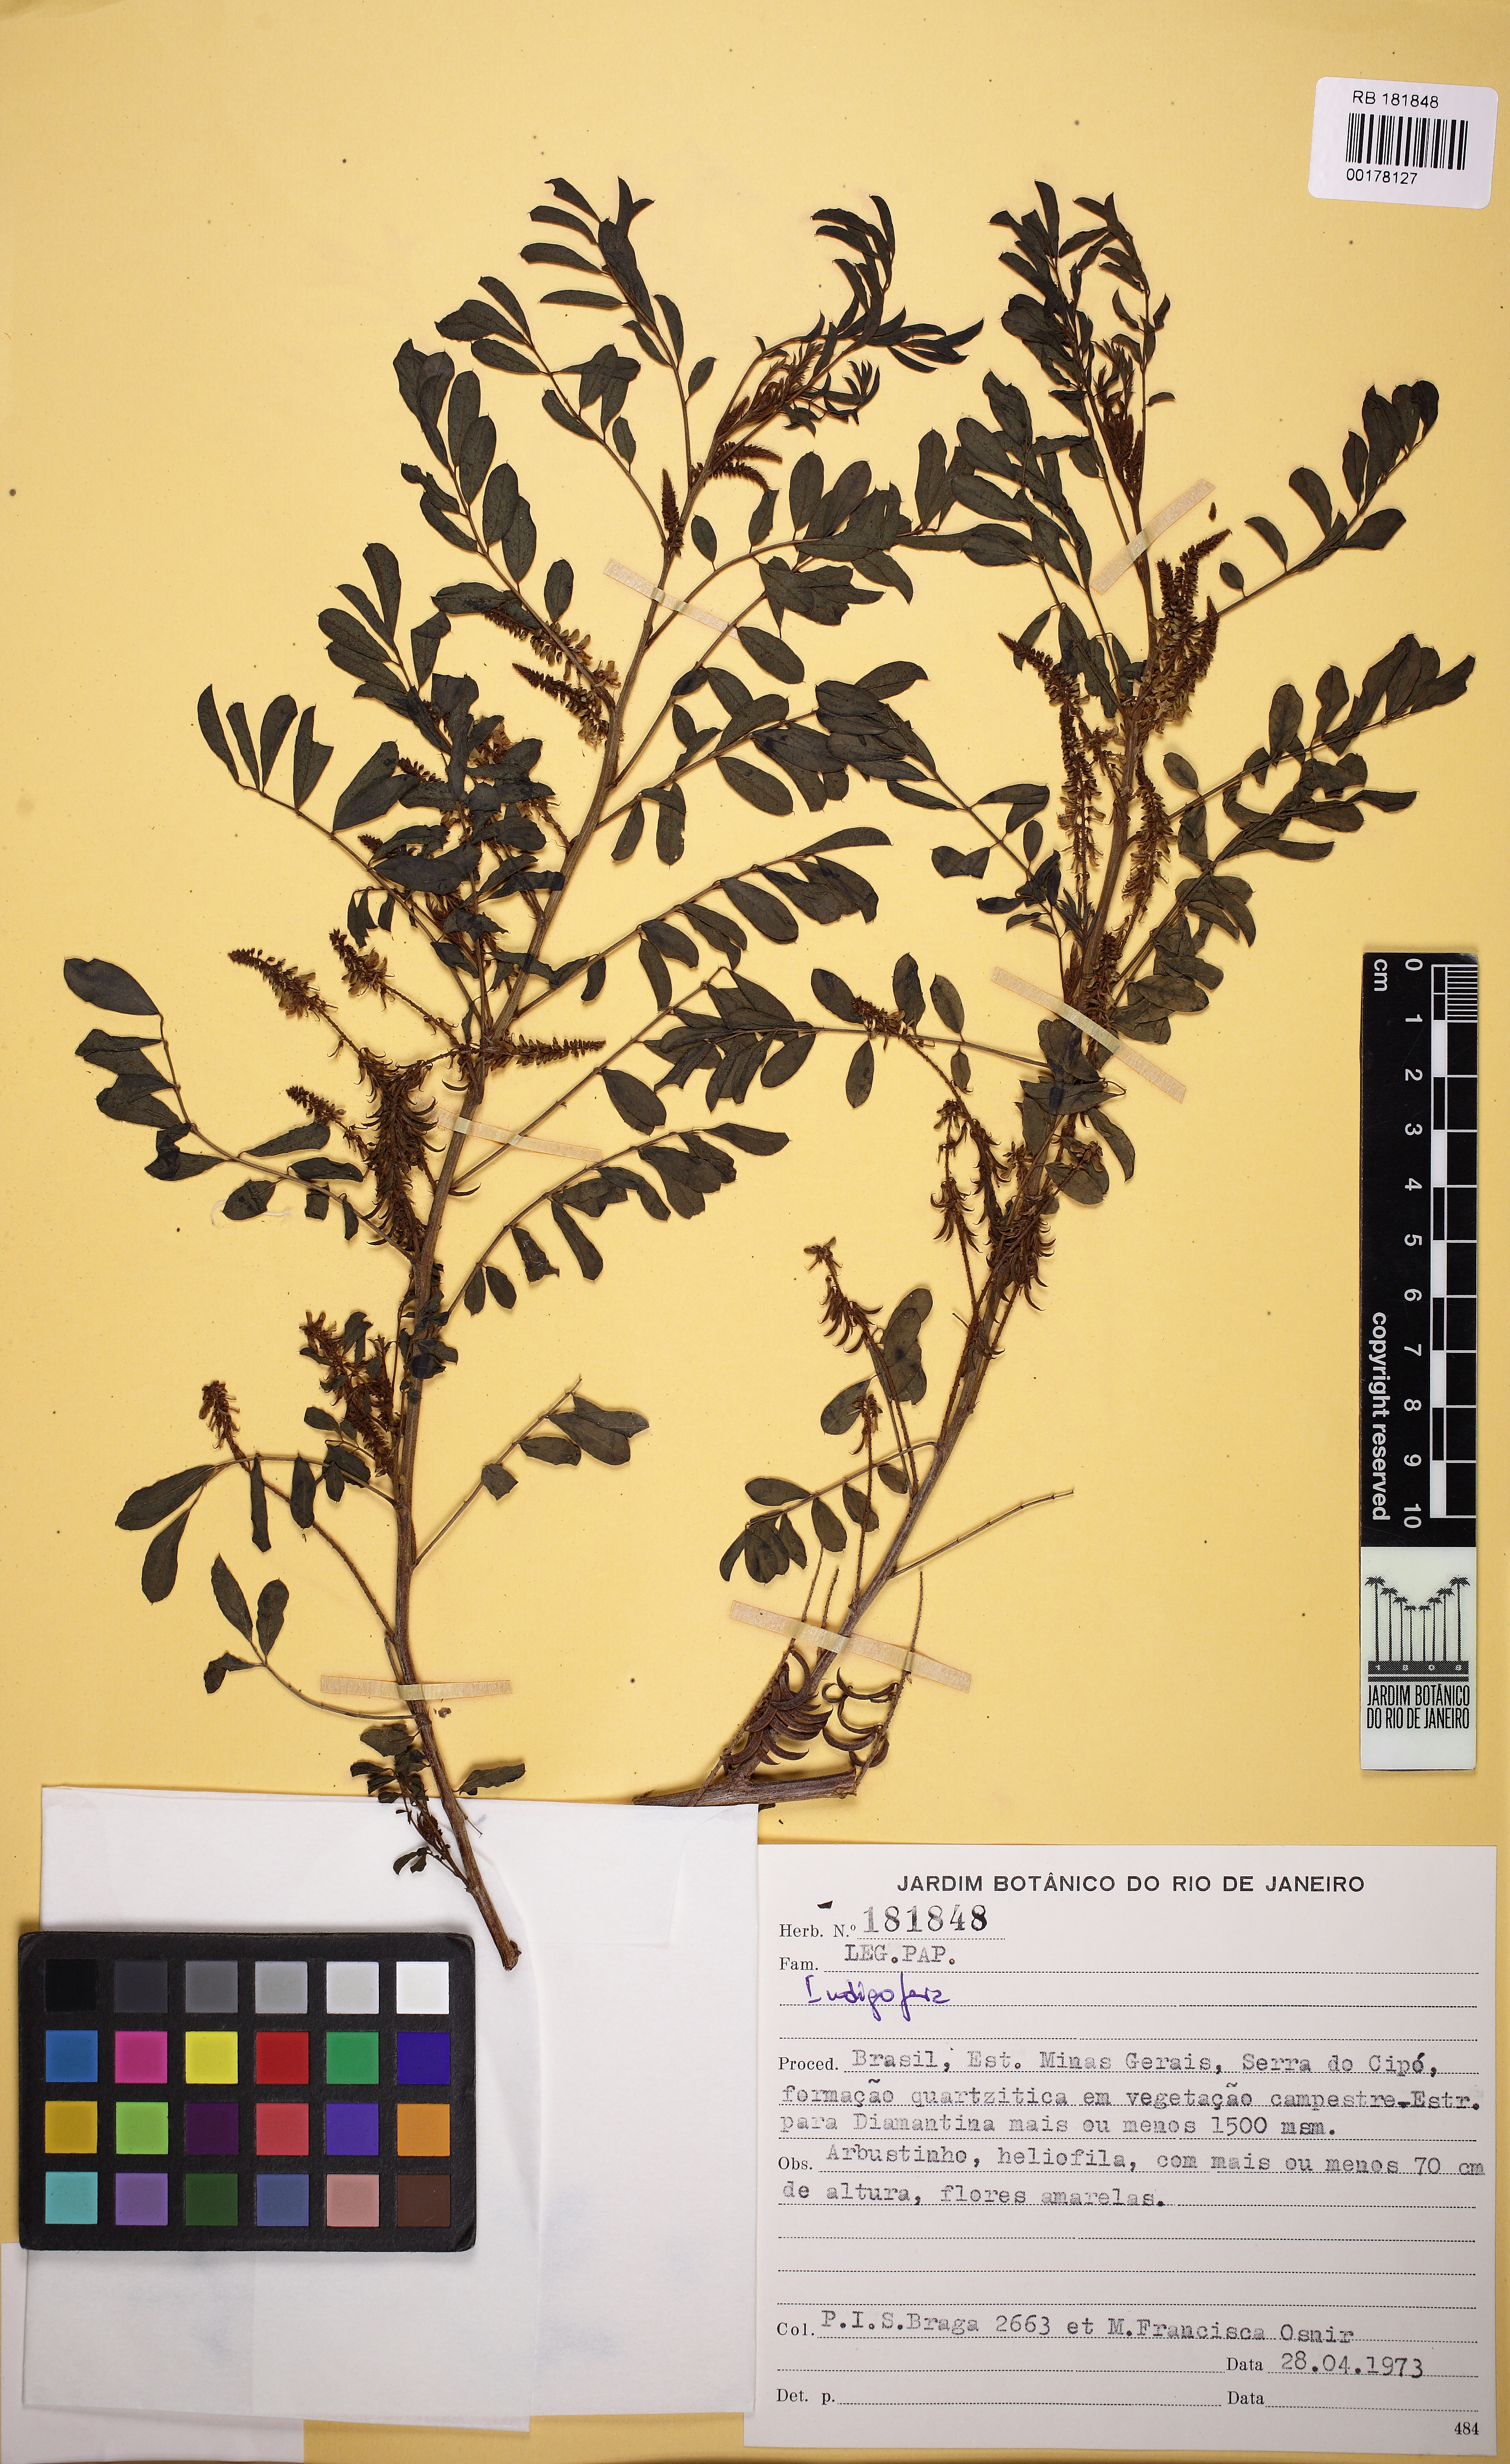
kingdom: Plantae
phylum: Tracheophyta
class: Magnoliopsida
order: Fabales
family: Fabaceae
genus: Indigofera
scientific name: Indigofera
